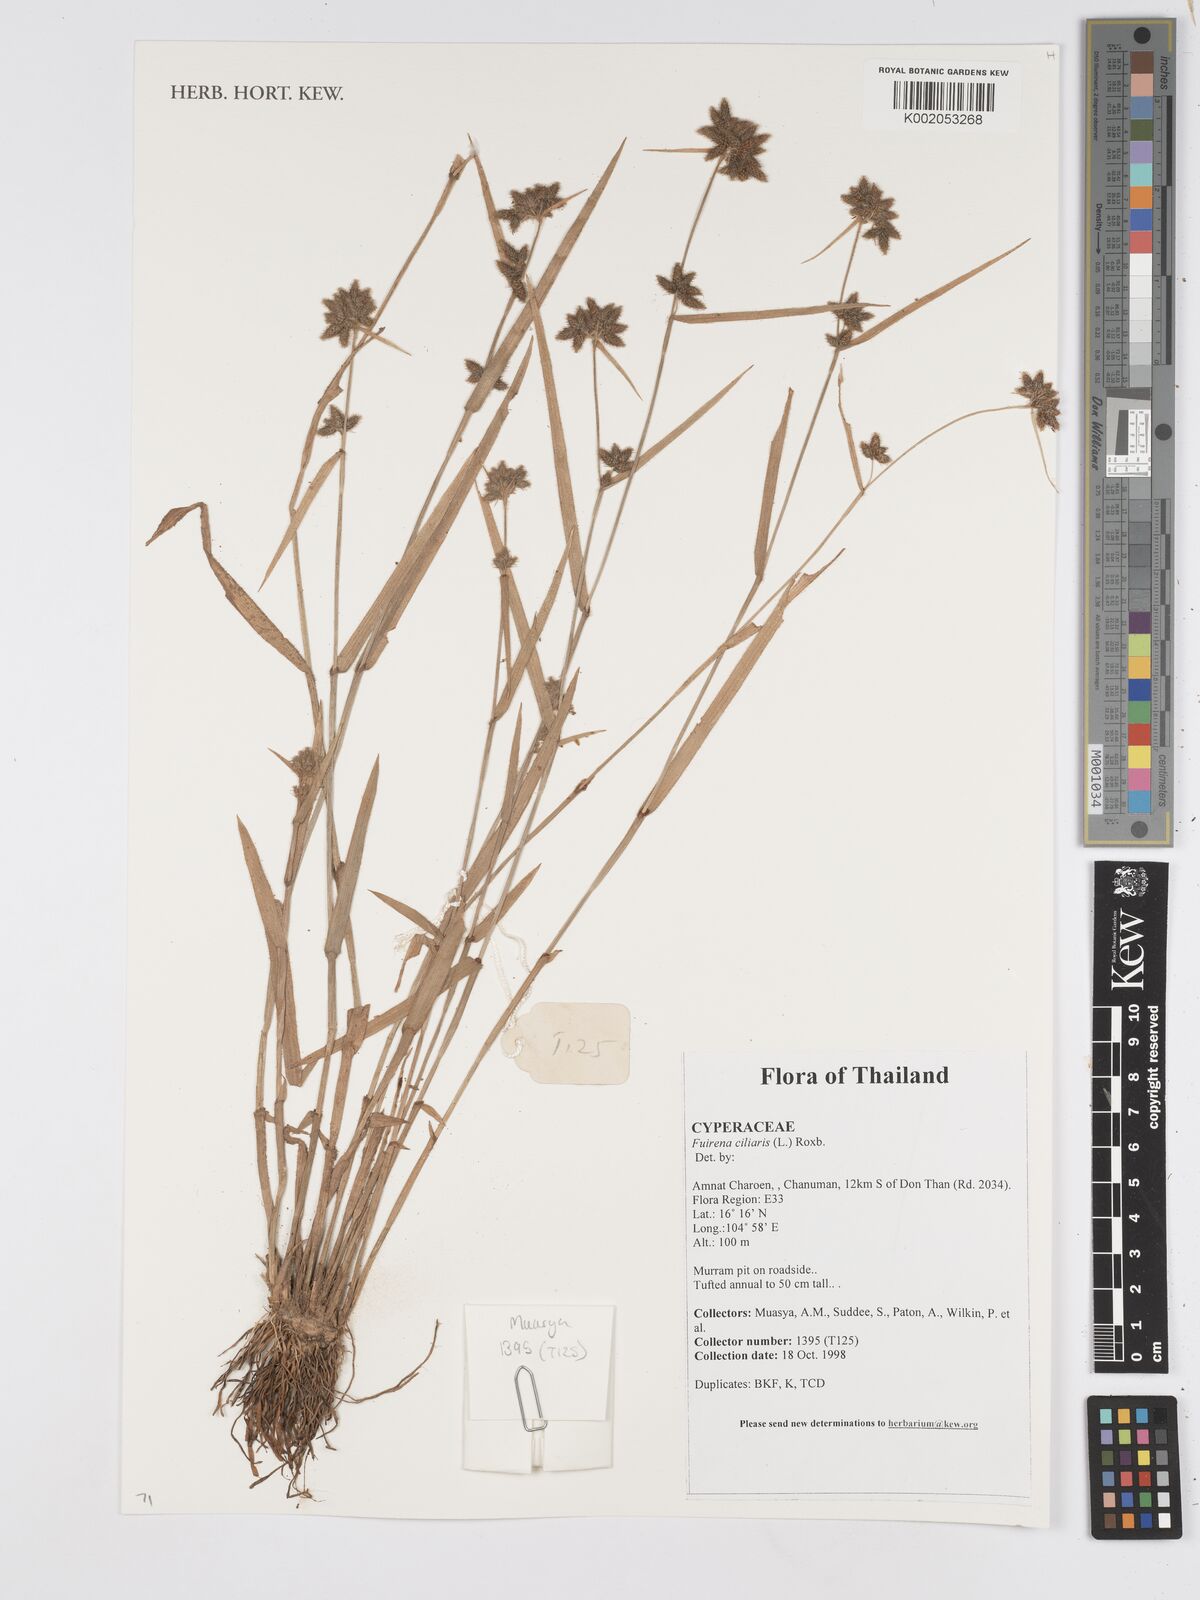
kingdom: Plantae
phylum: Tracheophyta
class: Liliopsida
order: Poales
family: Cyperaceae
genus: Fuirena
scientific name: Fuirena ciliaris
